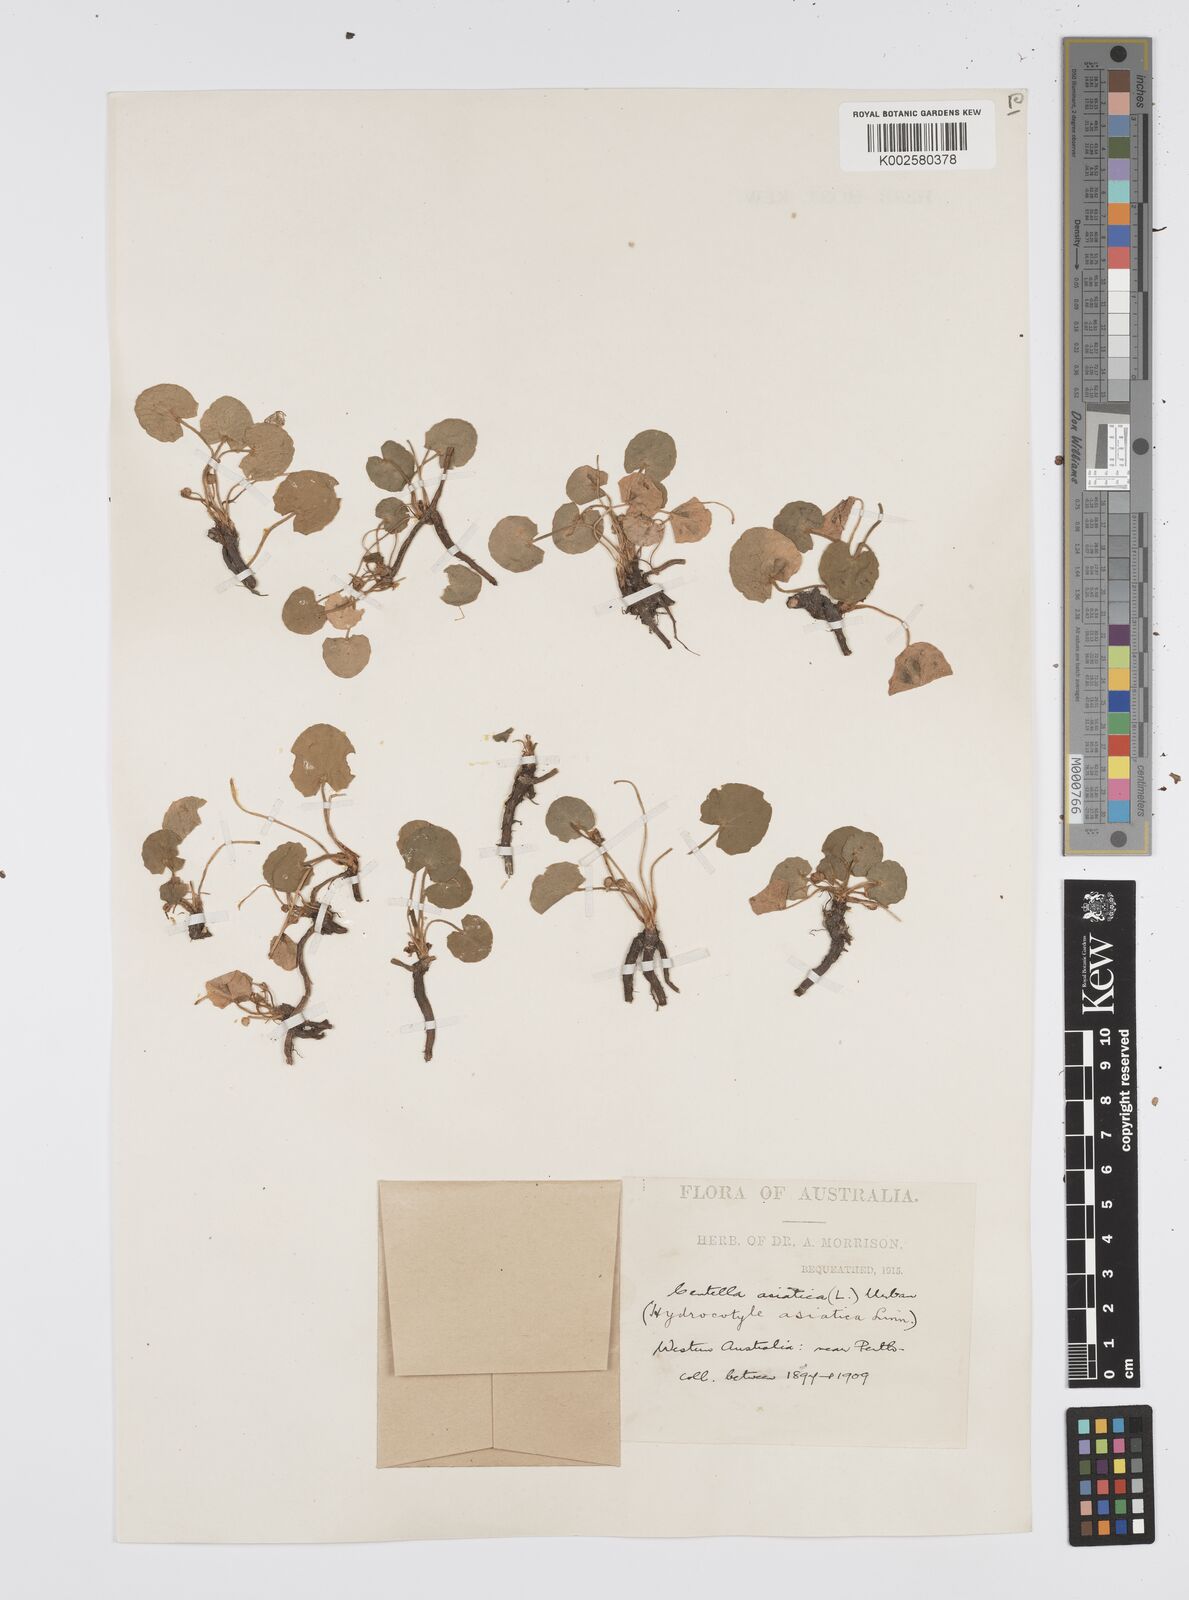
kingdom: Plantae
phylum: Tracheophyta
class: Magnoliopsida
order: Apiales
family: Apiaceae
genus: Centella
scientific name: Centella asiatica
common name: Spadeleaf
